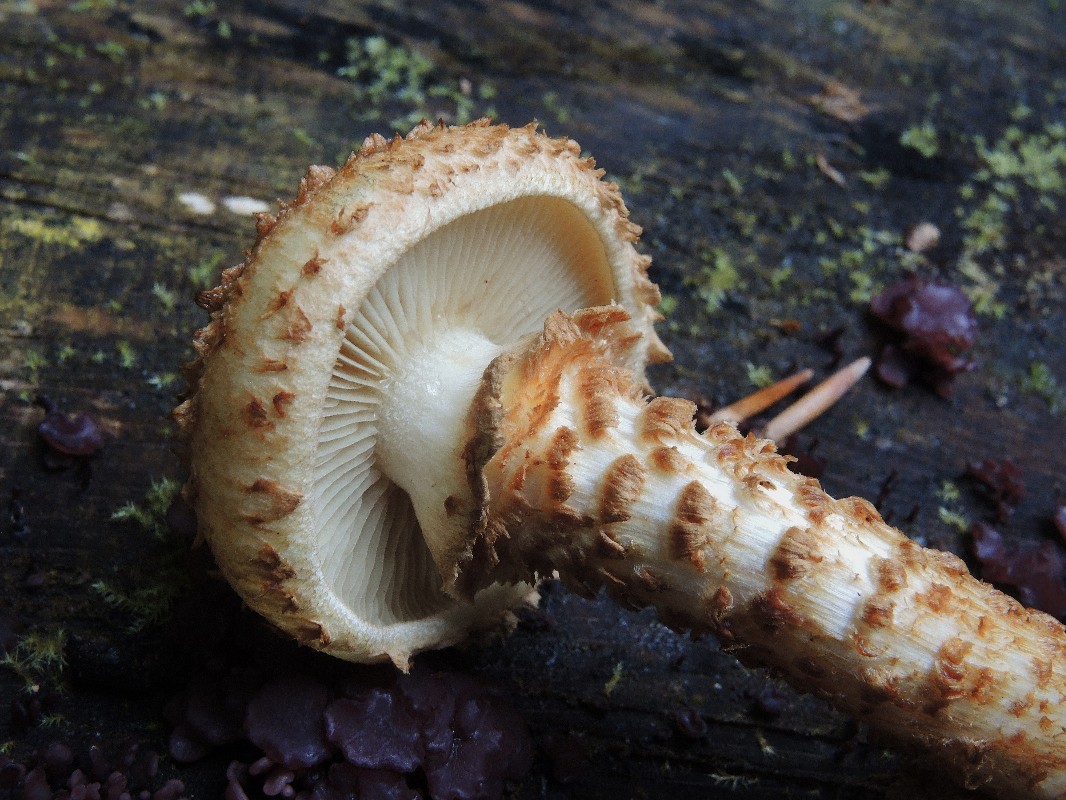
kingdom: Fungi
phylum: Basidiomycota
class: Agaricomycetes
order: Agaricales
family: Strophariaceae
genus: Pholiota
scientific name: Pholiota squarrosa
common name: krumskællet skælhat
